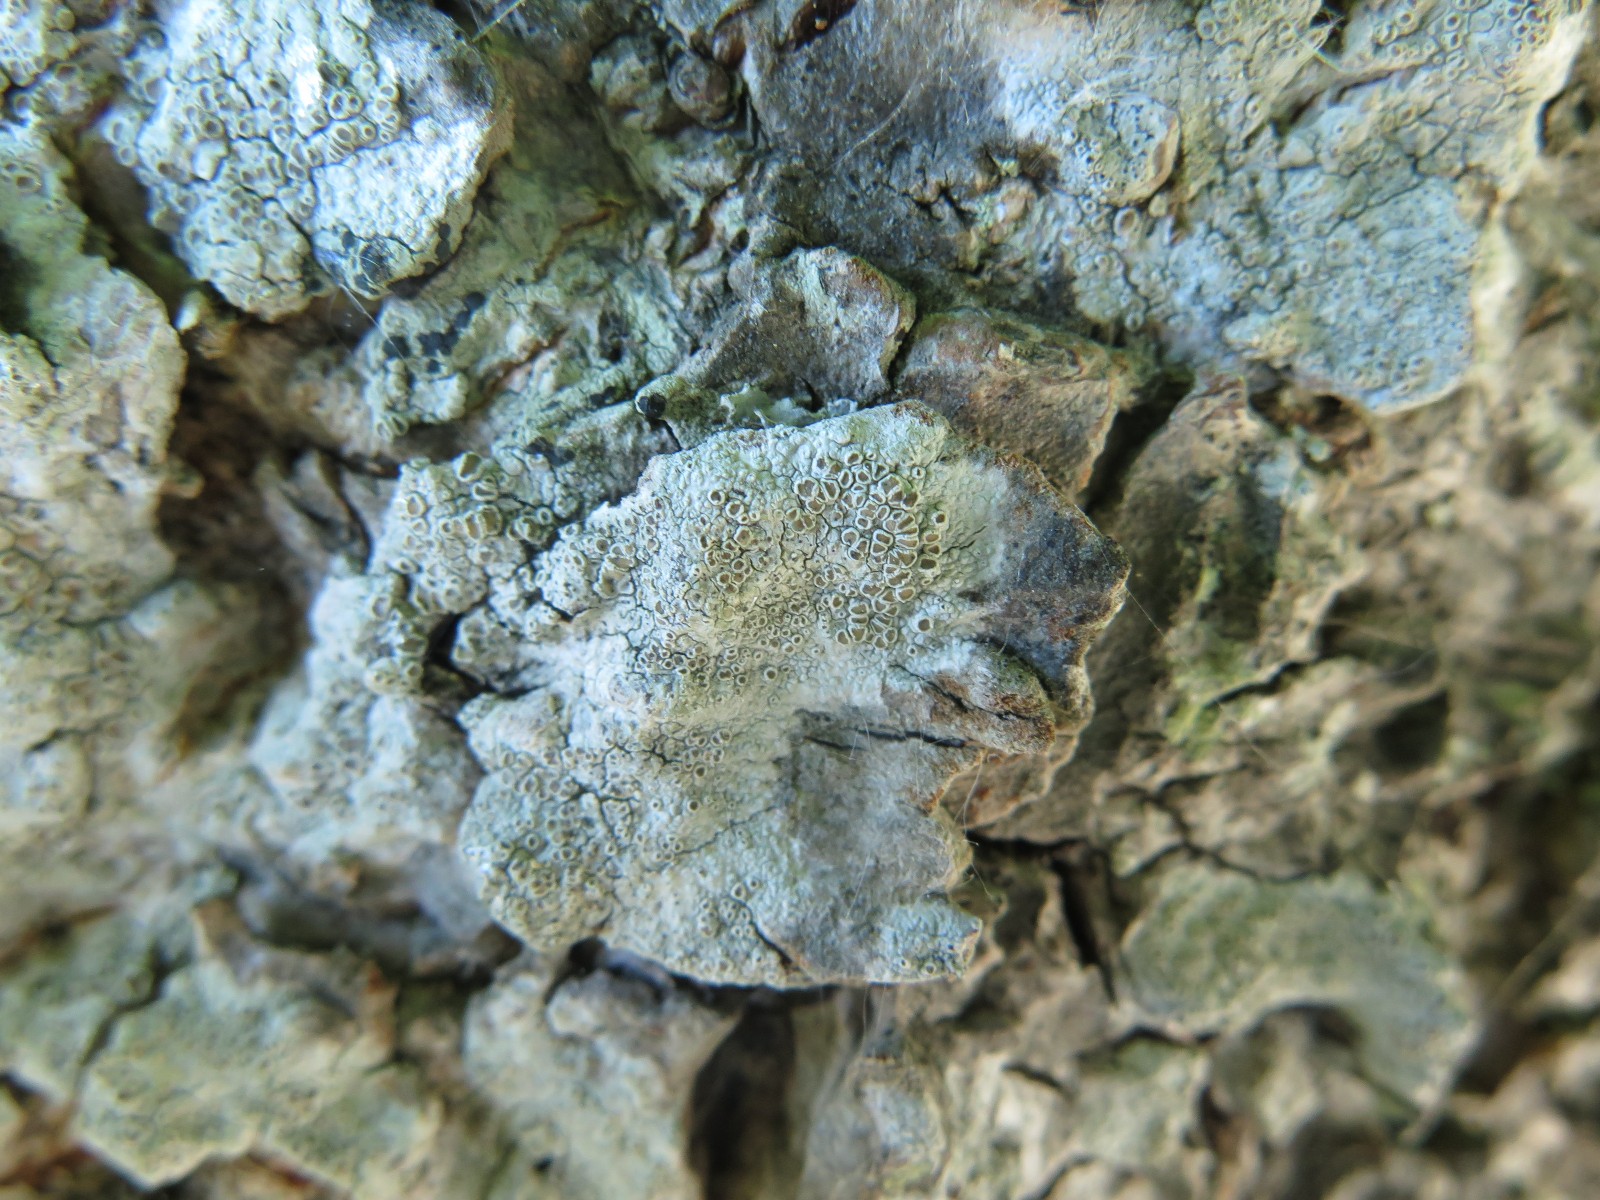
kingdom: Fungi
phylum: Ascomycota
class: Lecanoromycetes
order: Lecanorales
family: Lecanoraceae
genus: Lecanora
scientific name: Lecanora chlarotera
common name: brun kantskivelav
